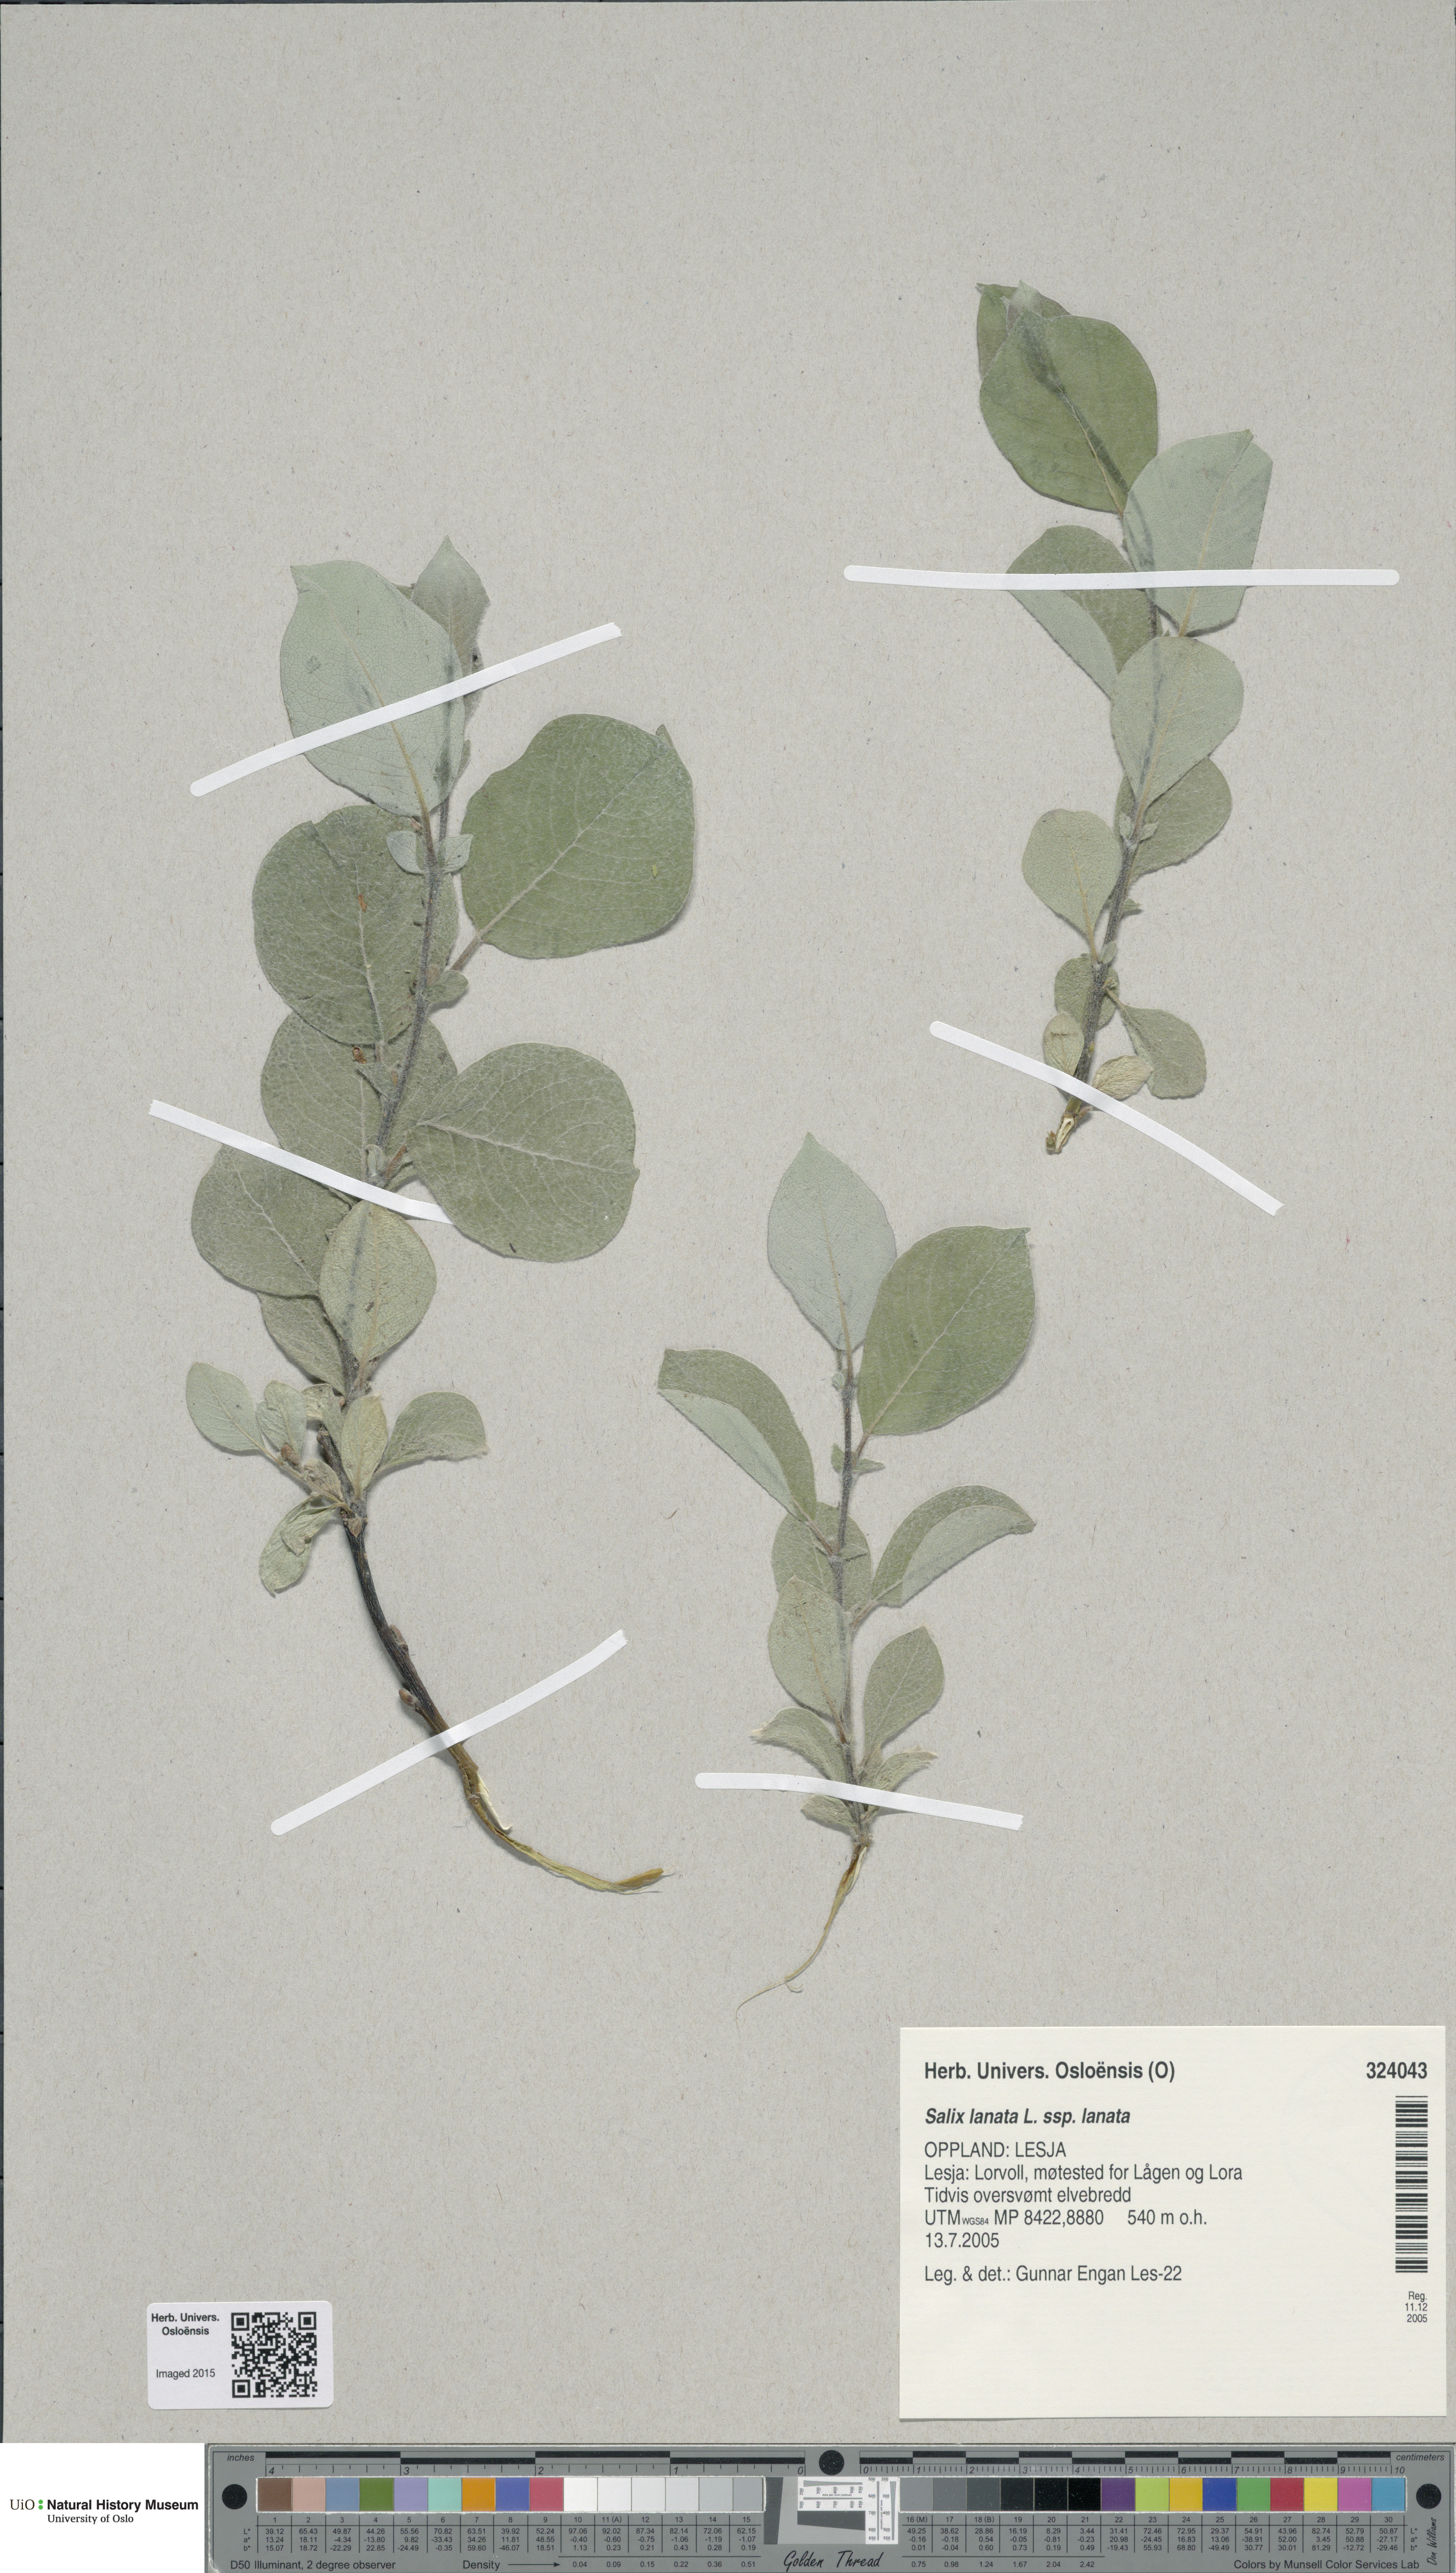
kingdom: Plantae
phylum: Tracheophyta
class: Magnoliopsida
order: Malpighiales
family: Salicaceae
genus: Salix
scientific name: Salix lanata
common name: Woolly willow
